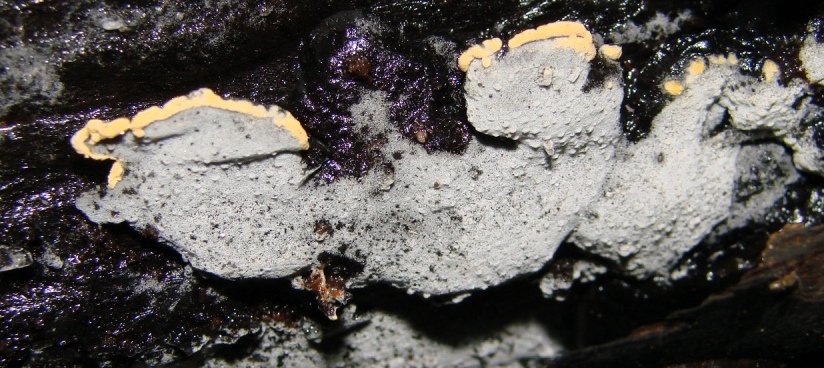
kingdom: Fungi
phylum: Basidiomycota
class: Agaricomycetes
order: Cantharellales
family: Botryobasidiaceae
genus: Botryobasidium
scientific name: Botryobasidium aureum
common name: gylden spindhinde
